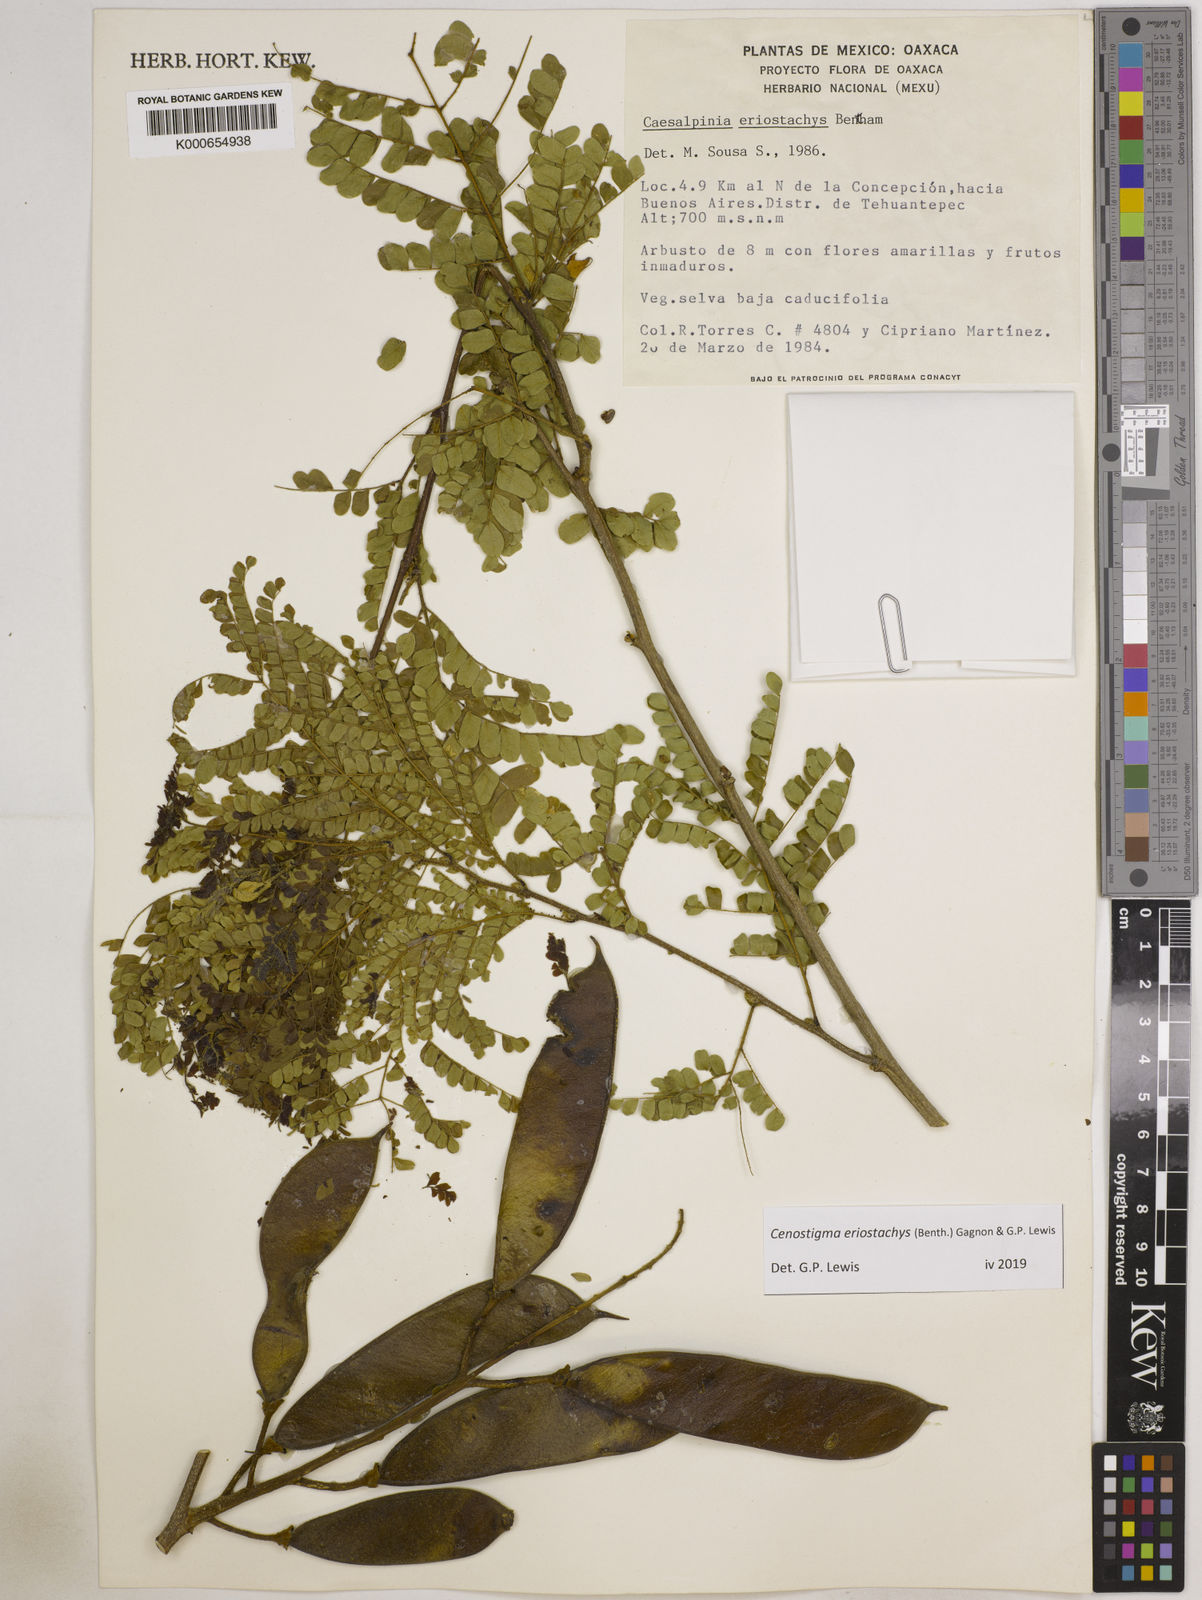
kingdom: Plantae
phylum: Tracheophyta
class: Magnoliopsida
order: Fabales
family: Fabaceae
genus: Cenostigma
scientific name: Cenostigma eriostachys
